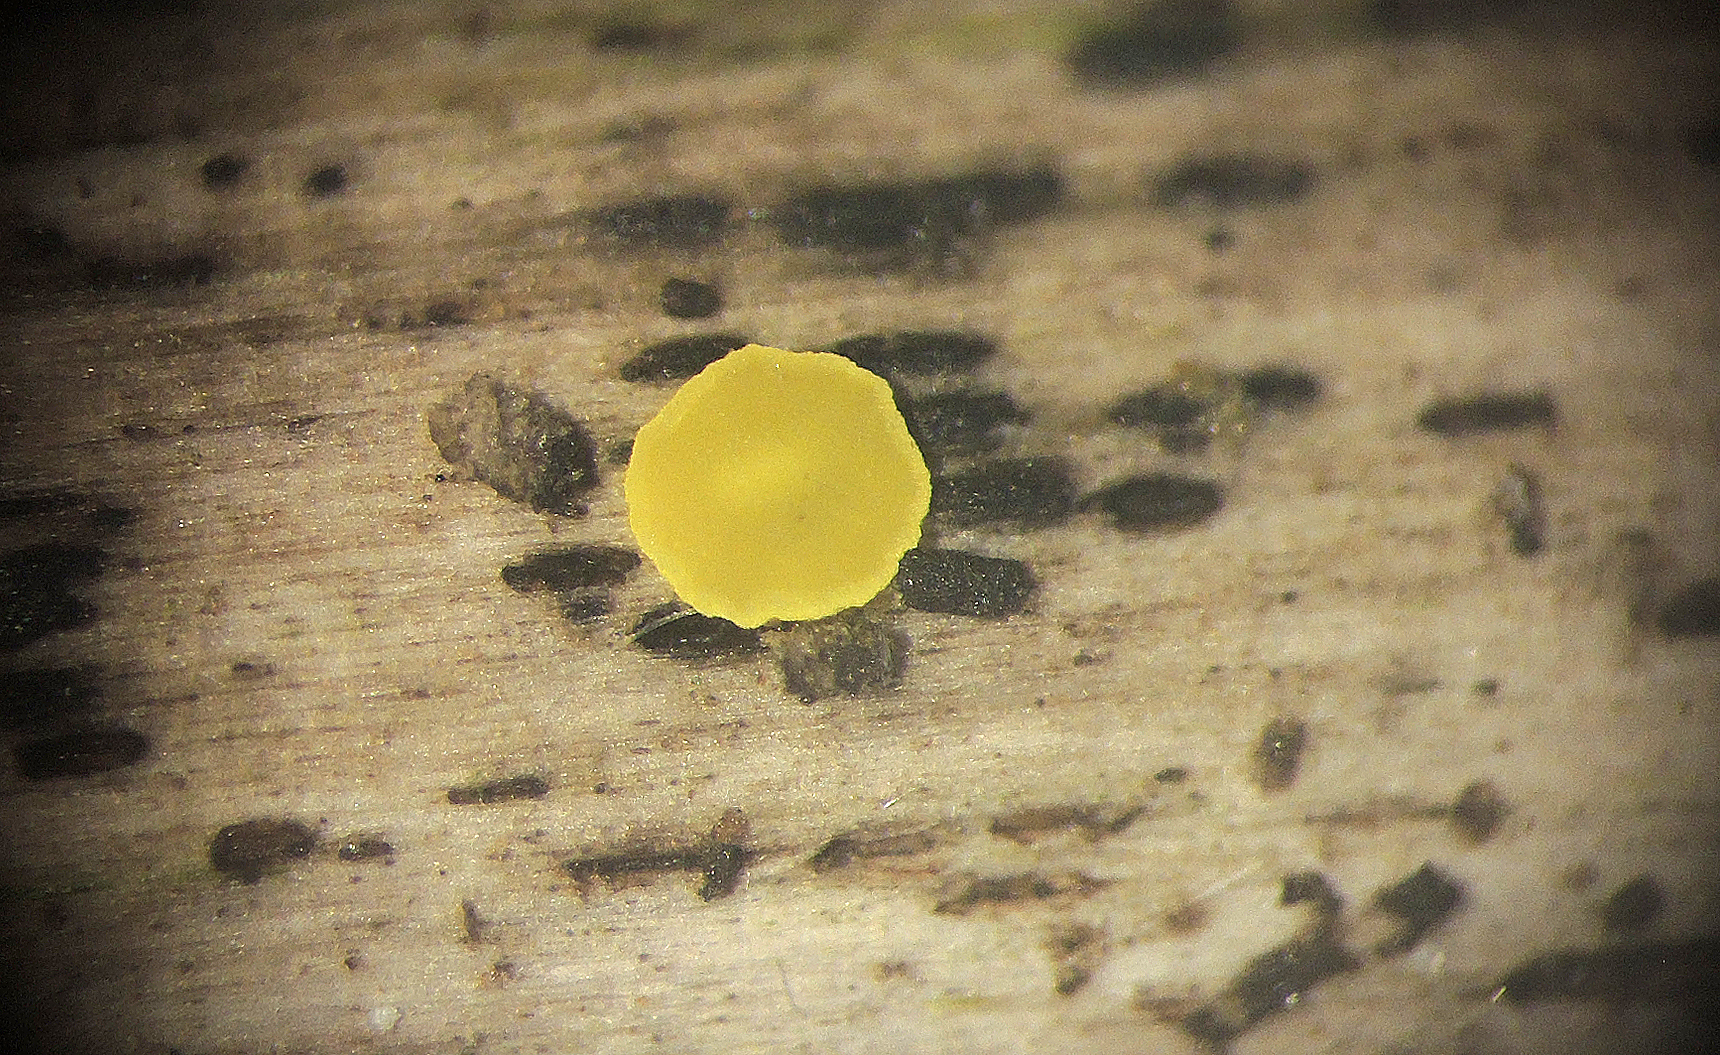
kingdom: Fungi
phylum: Ascomycota
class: Leotiomycetes
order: Helotiales
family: Pezizellaceae
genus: Calycina
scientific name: Calycina scolochloae
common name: bambus-gulskive
